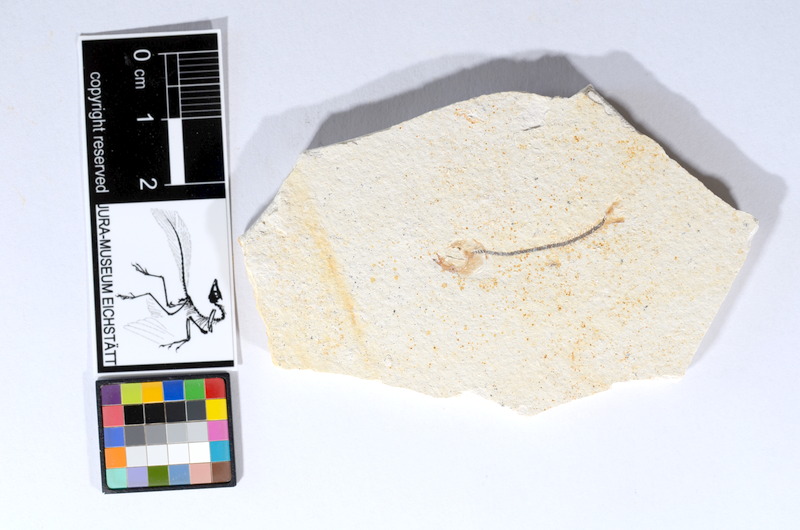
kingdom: Animalia
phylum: Chordata
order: Salmoniformes
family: Orthogonikleithridae
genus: Orthogonikleithrus
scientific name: Orthogonikleithrus hoelli
